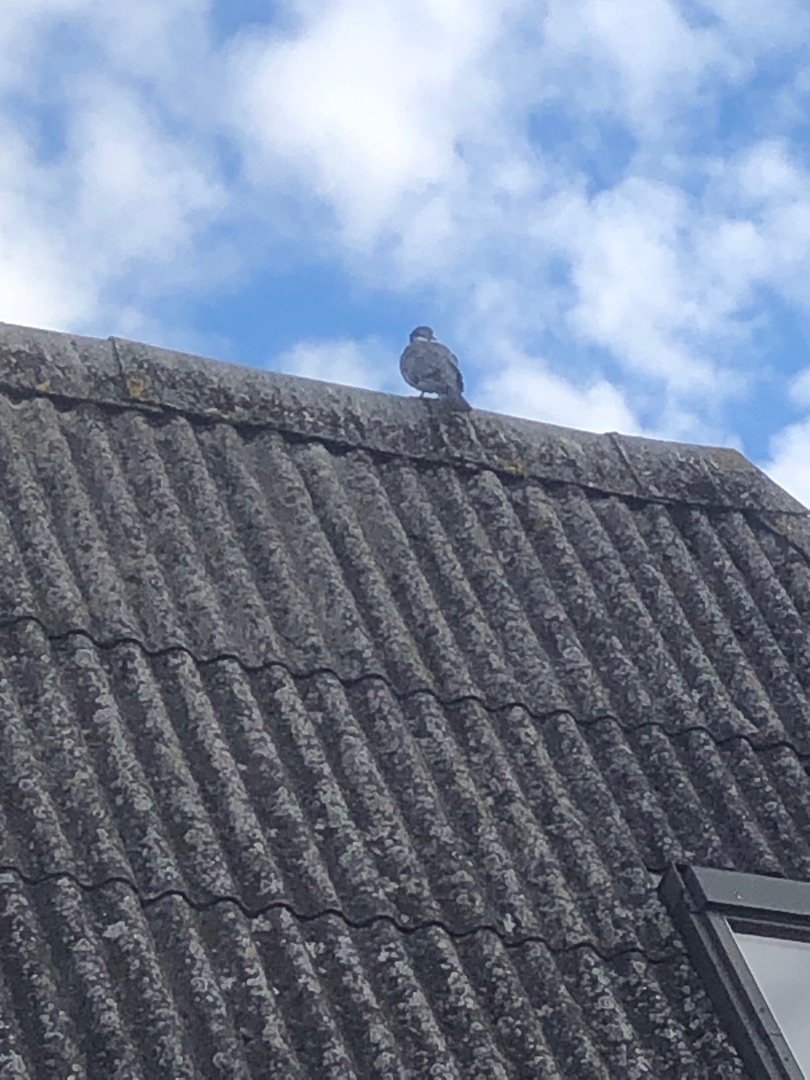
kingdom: Animalia
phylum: Chordata
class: Aves
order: Columbiformes
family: Columbidae
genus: Columba
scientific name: Columba palumbus
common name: Ringdue
